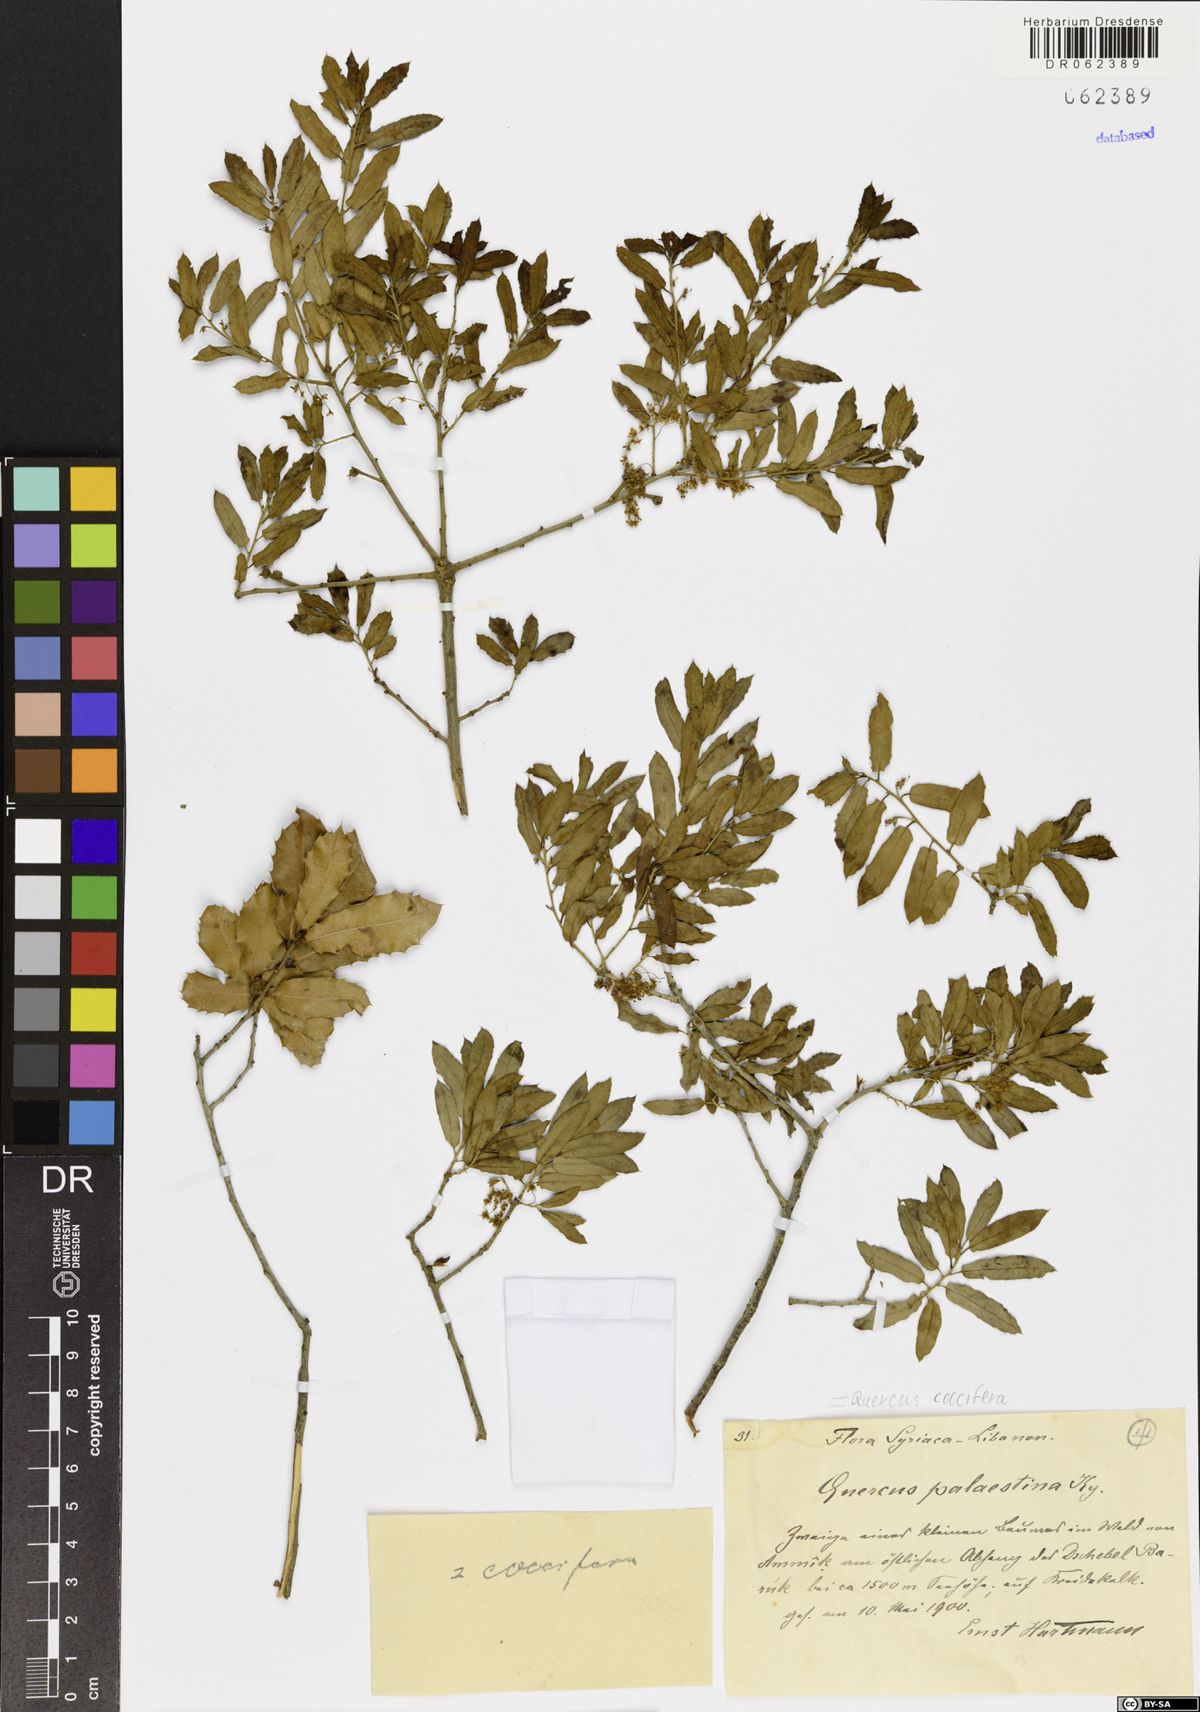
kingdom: Plantae
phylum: Tracheophyta
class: Magnoliopsida
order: Fagales
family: Fagaceae
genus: Quercus
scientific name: Quercus coccifera
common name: Kermes oak
